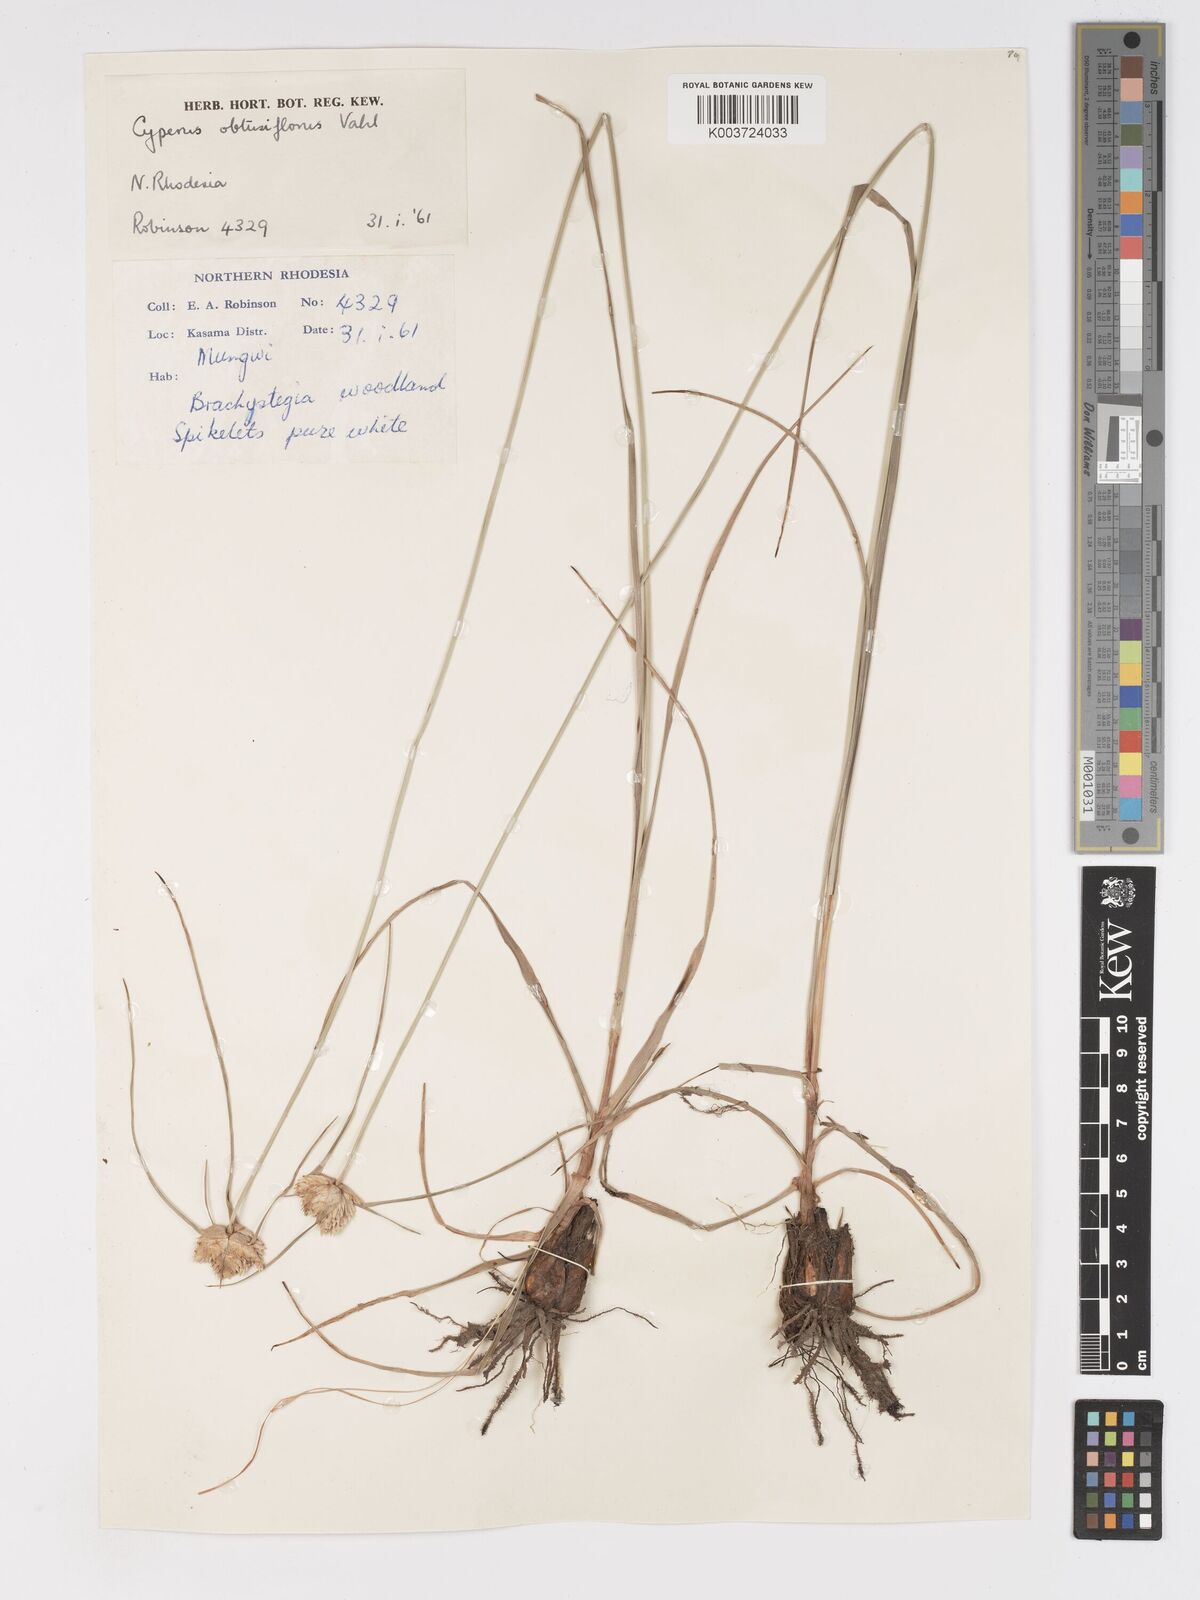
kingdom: Plantae
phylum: Tracheophyta
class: Liliopsida
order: Poales
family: Cyperaceae
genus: Cyperus
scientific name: Cyperus niveus
